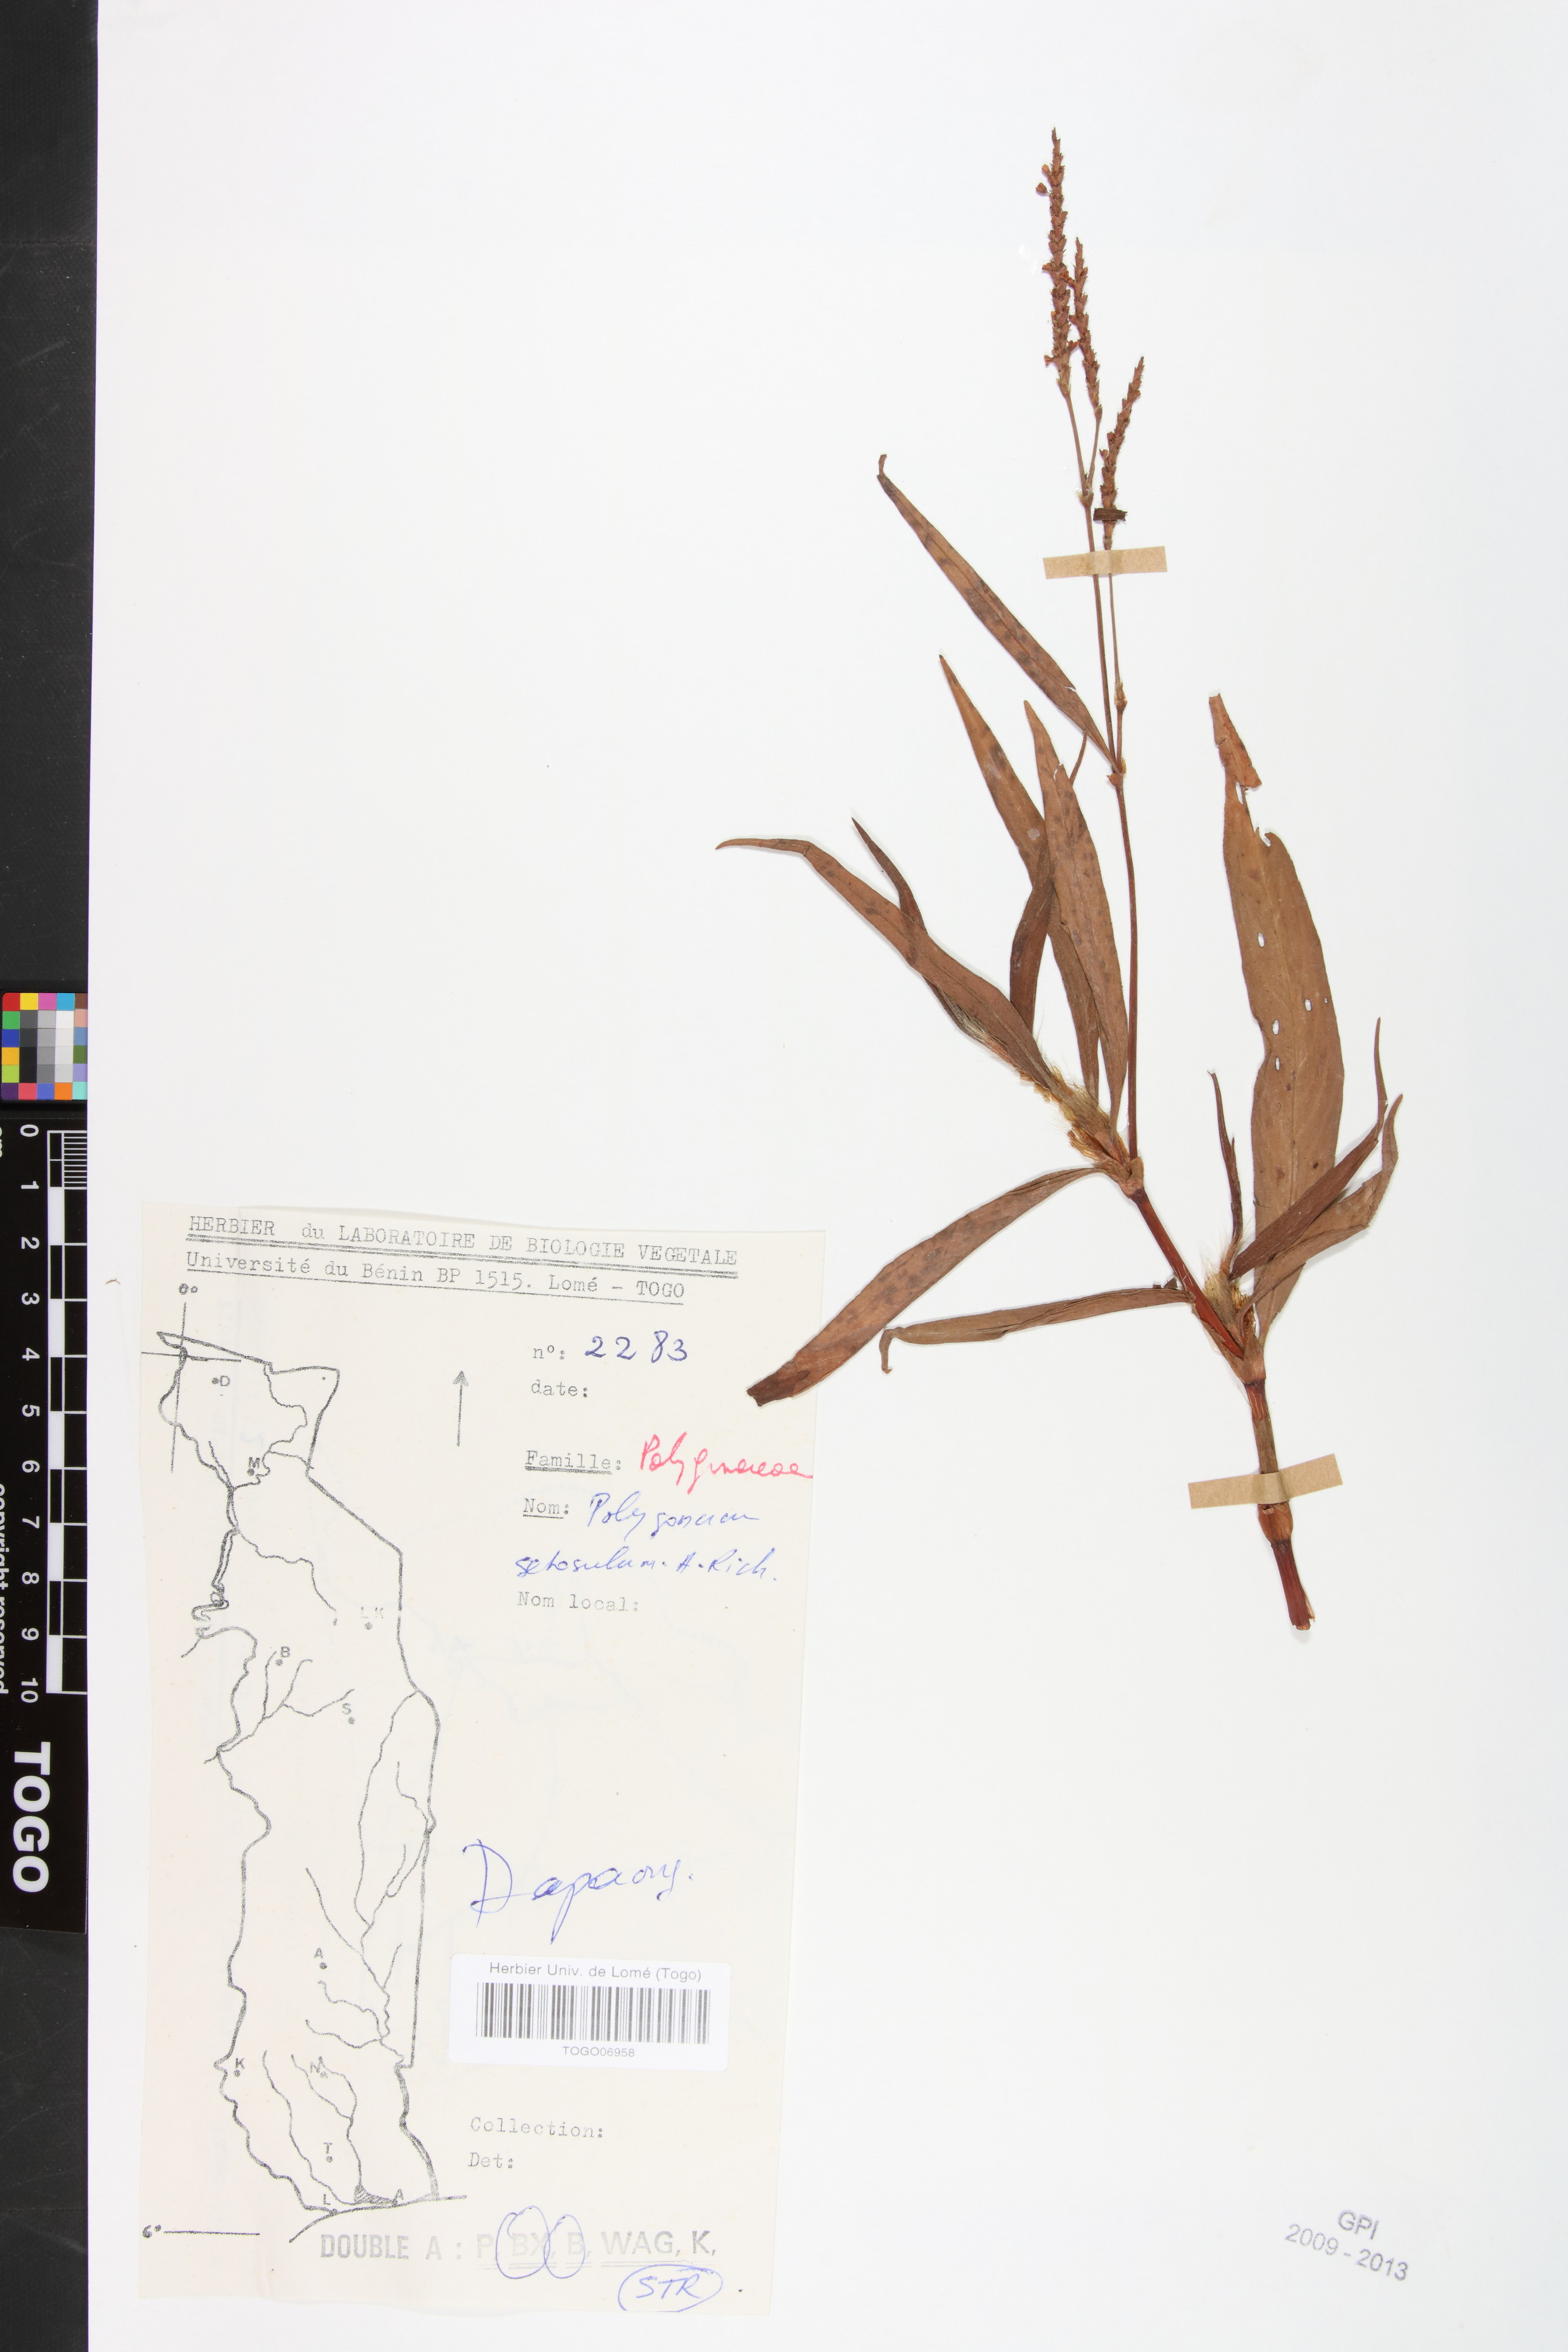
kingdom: Plantae
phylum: Tracheophyta
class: Magnoliopsida
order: Caryophyllales
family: Polygonaceae
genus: Persicaria
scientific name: Persicaria setosula
